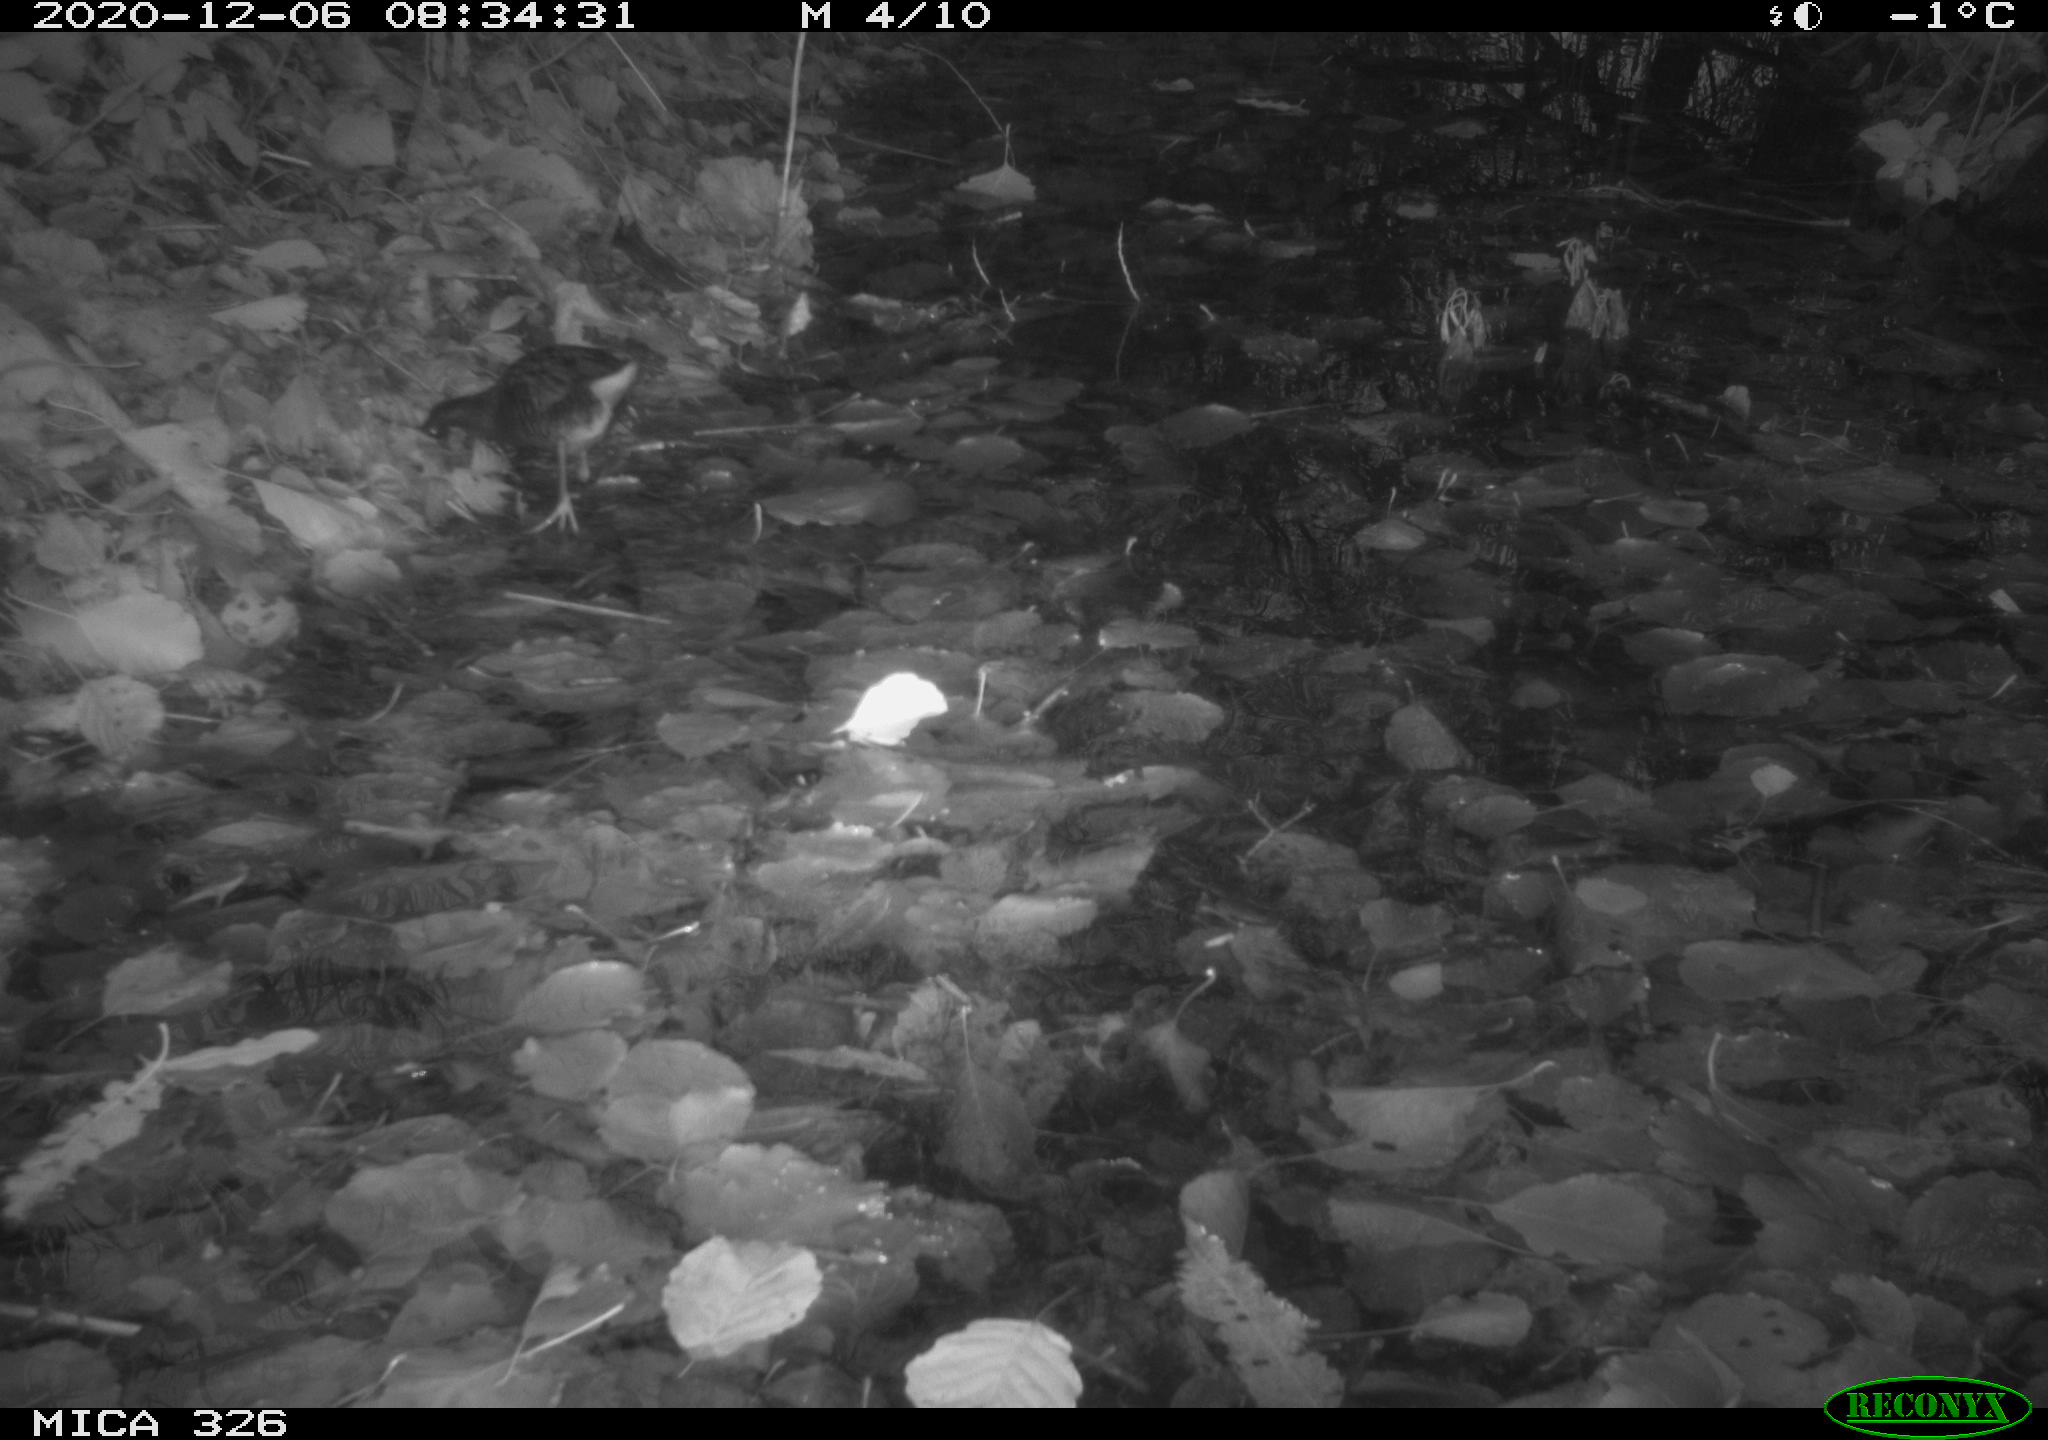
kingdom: Animalia
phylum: Chordata
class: Aves
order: Gruiformes
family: Rallidae
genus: Rallus
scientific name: Rallus aquaticus
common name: Water rail
